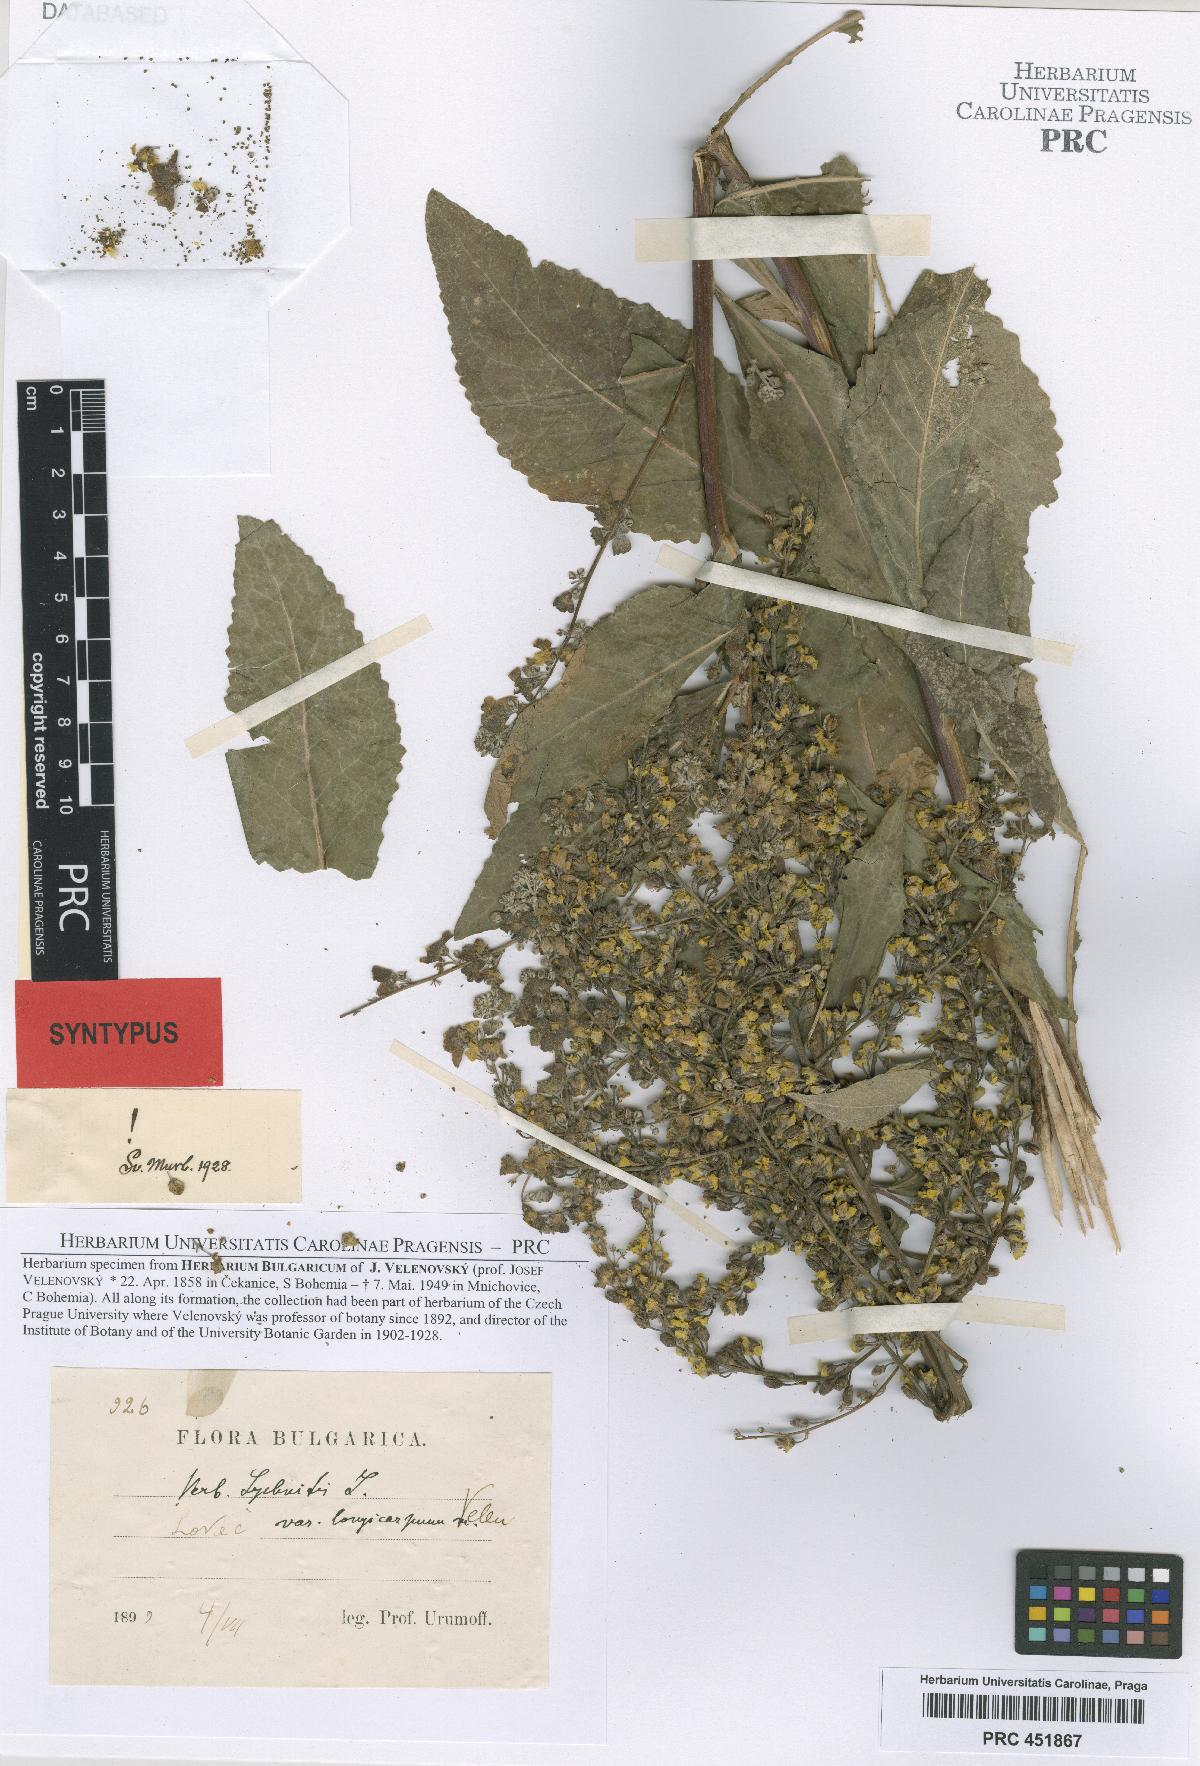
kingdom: Plantae
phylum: Tracheophyta
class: Magnoliopsida
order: Lamiales
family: Scrophulariaceae
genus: Verbascum
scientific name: Verbascum lychnitis
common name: White mullein
